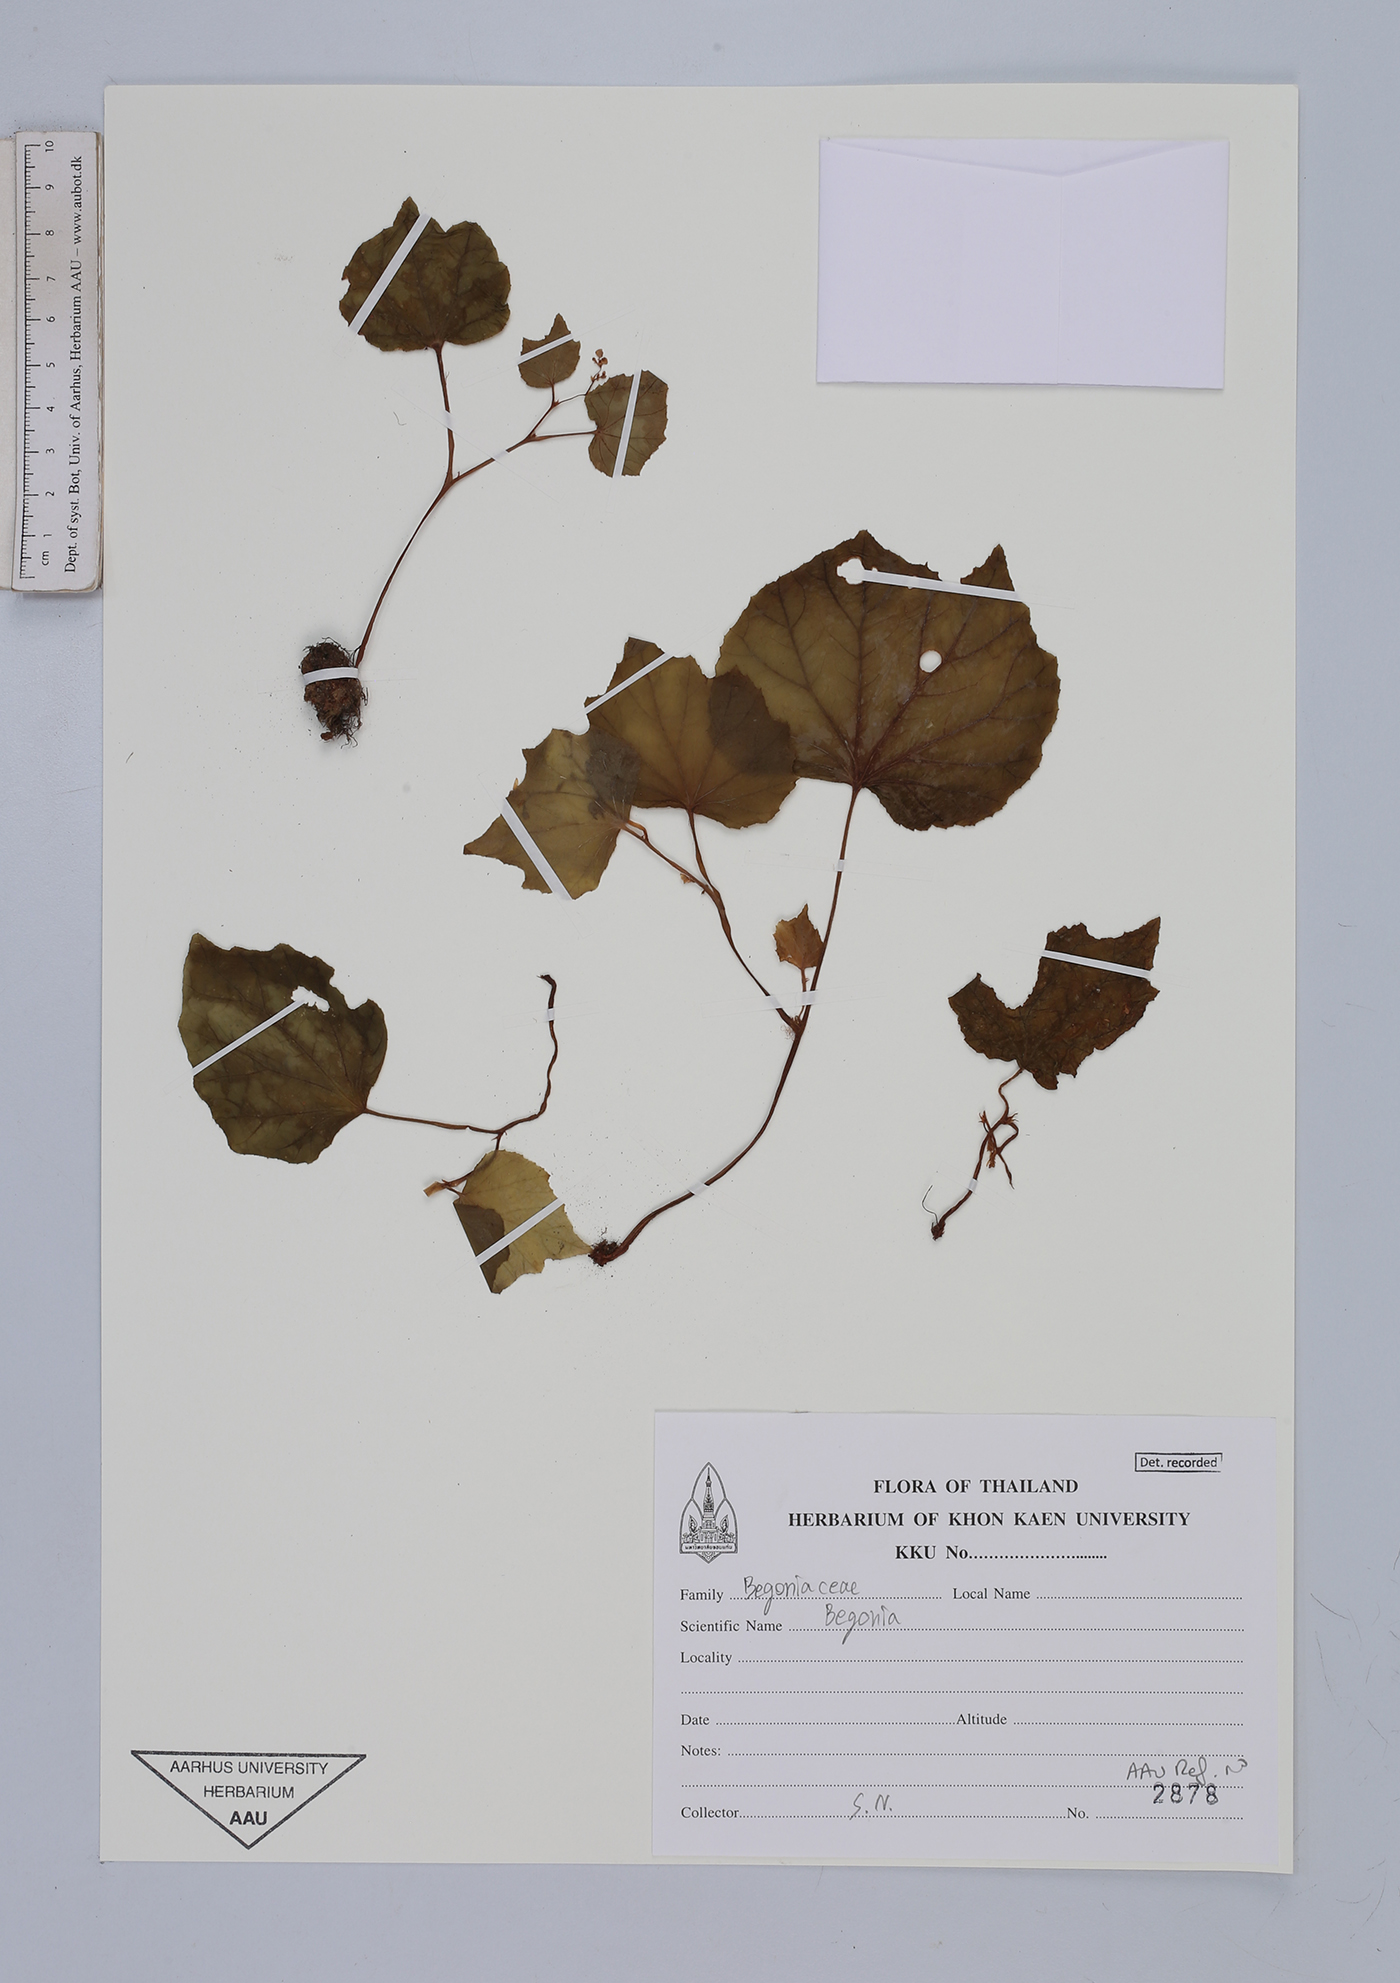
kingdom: Plantae
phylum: Tracheophyta
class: Magnoliopsida
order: Cucurbitales
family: Begoniaceae
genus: Begonia
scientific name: Begonia
